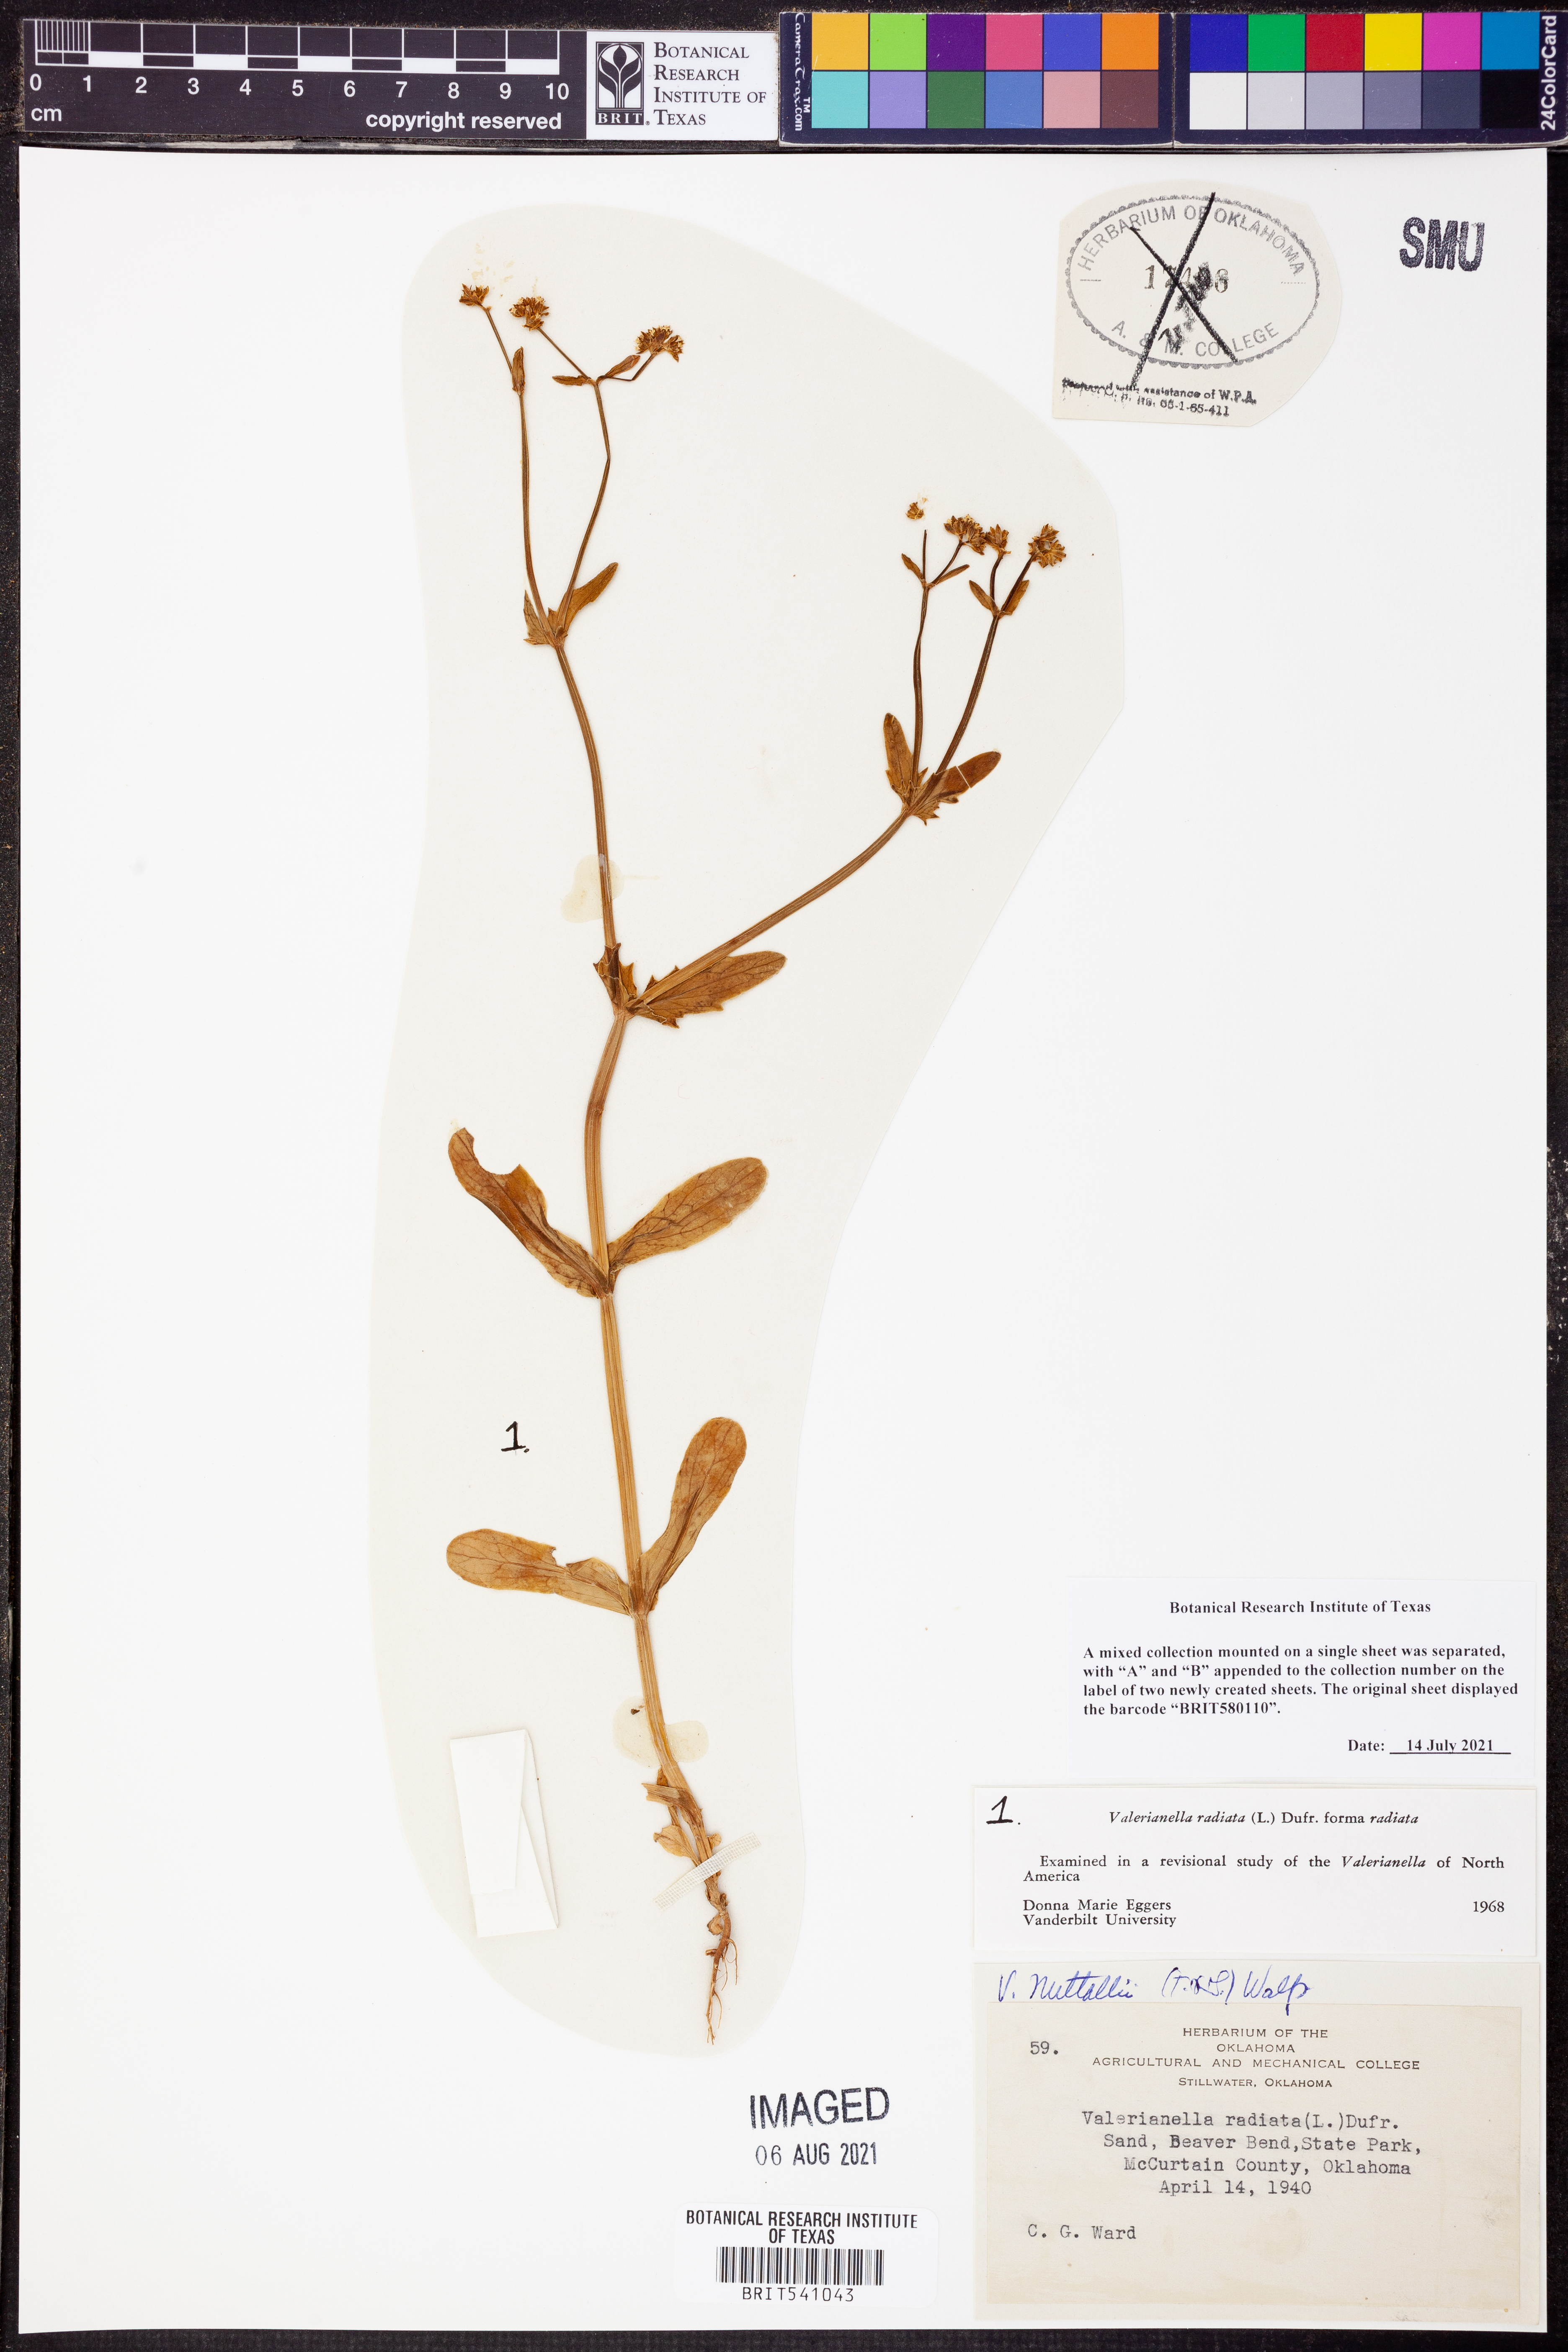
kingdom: Plantae
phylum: Tracheophyta
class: Magnoliopsida
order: Dipsacales
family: Caprifoliaceae
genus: Valerianella
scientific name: Valerianella radiata
